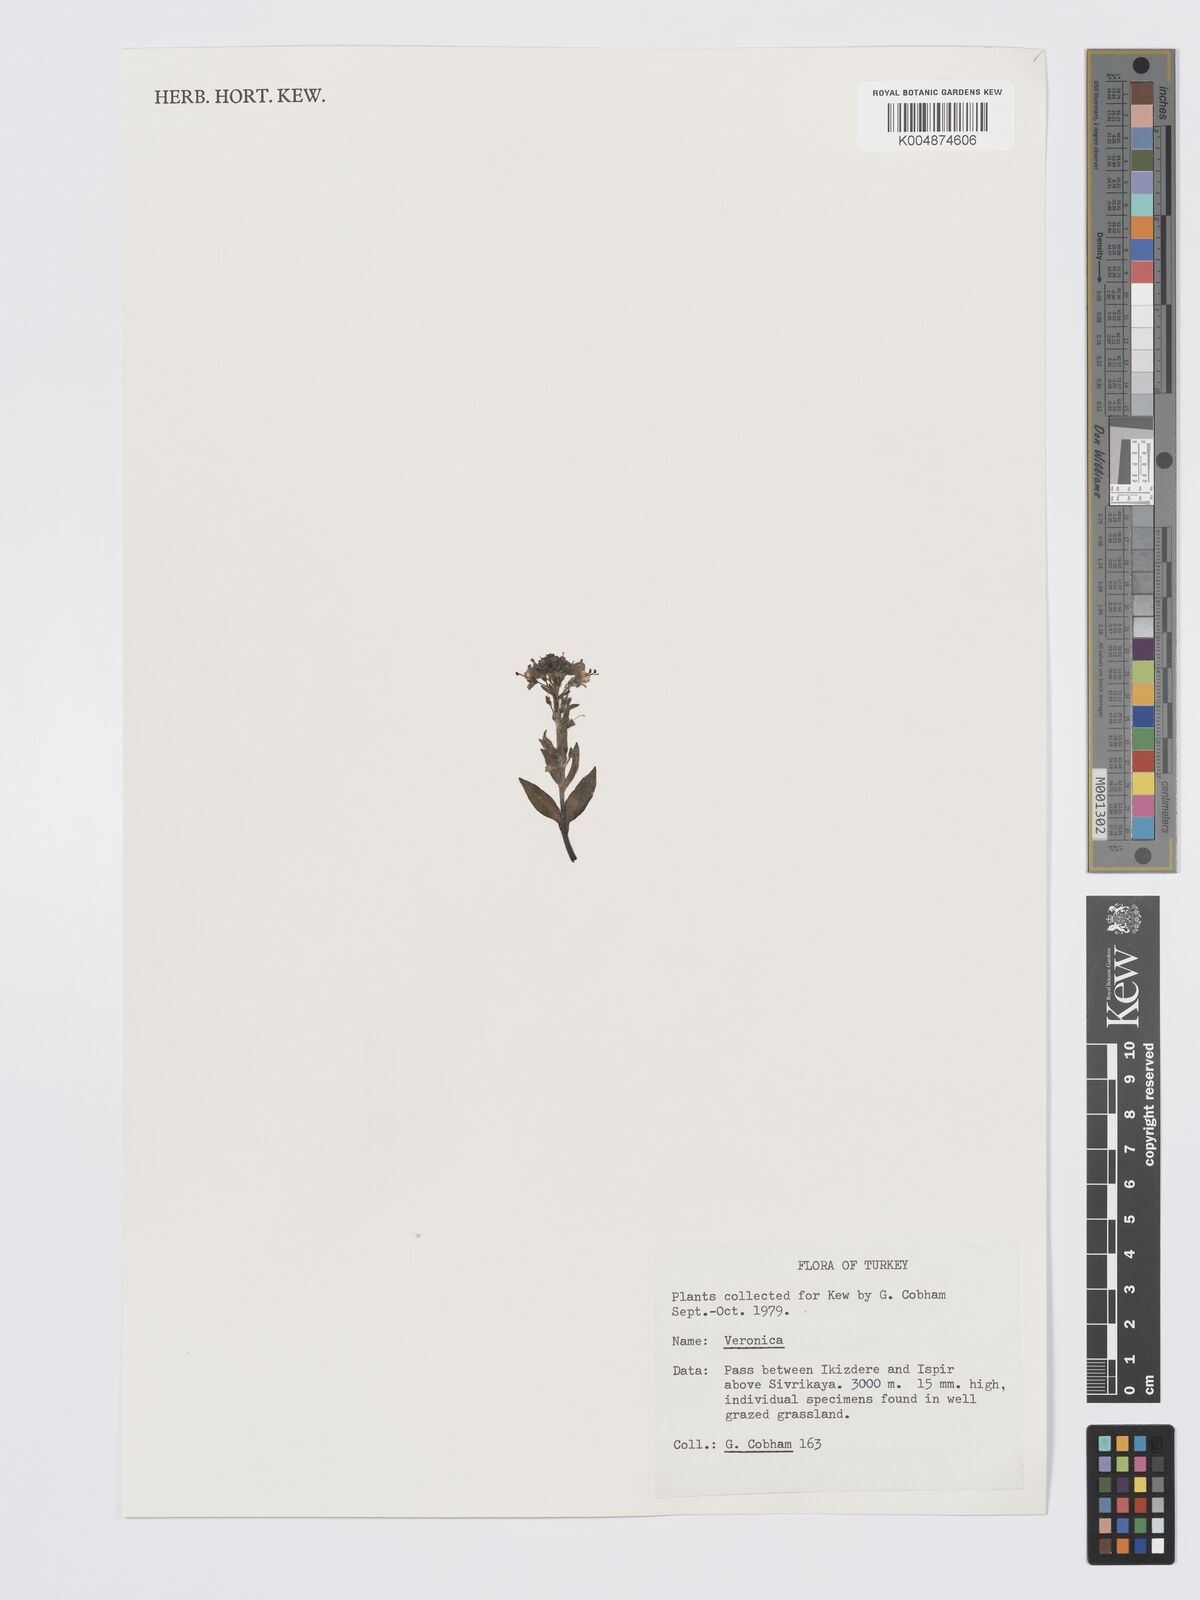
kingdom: Plantae
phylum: Tracheophyta
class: Magnoliopsida
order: Lamiales
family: Plantaginaceae
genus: Veronica
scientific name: Veronica
